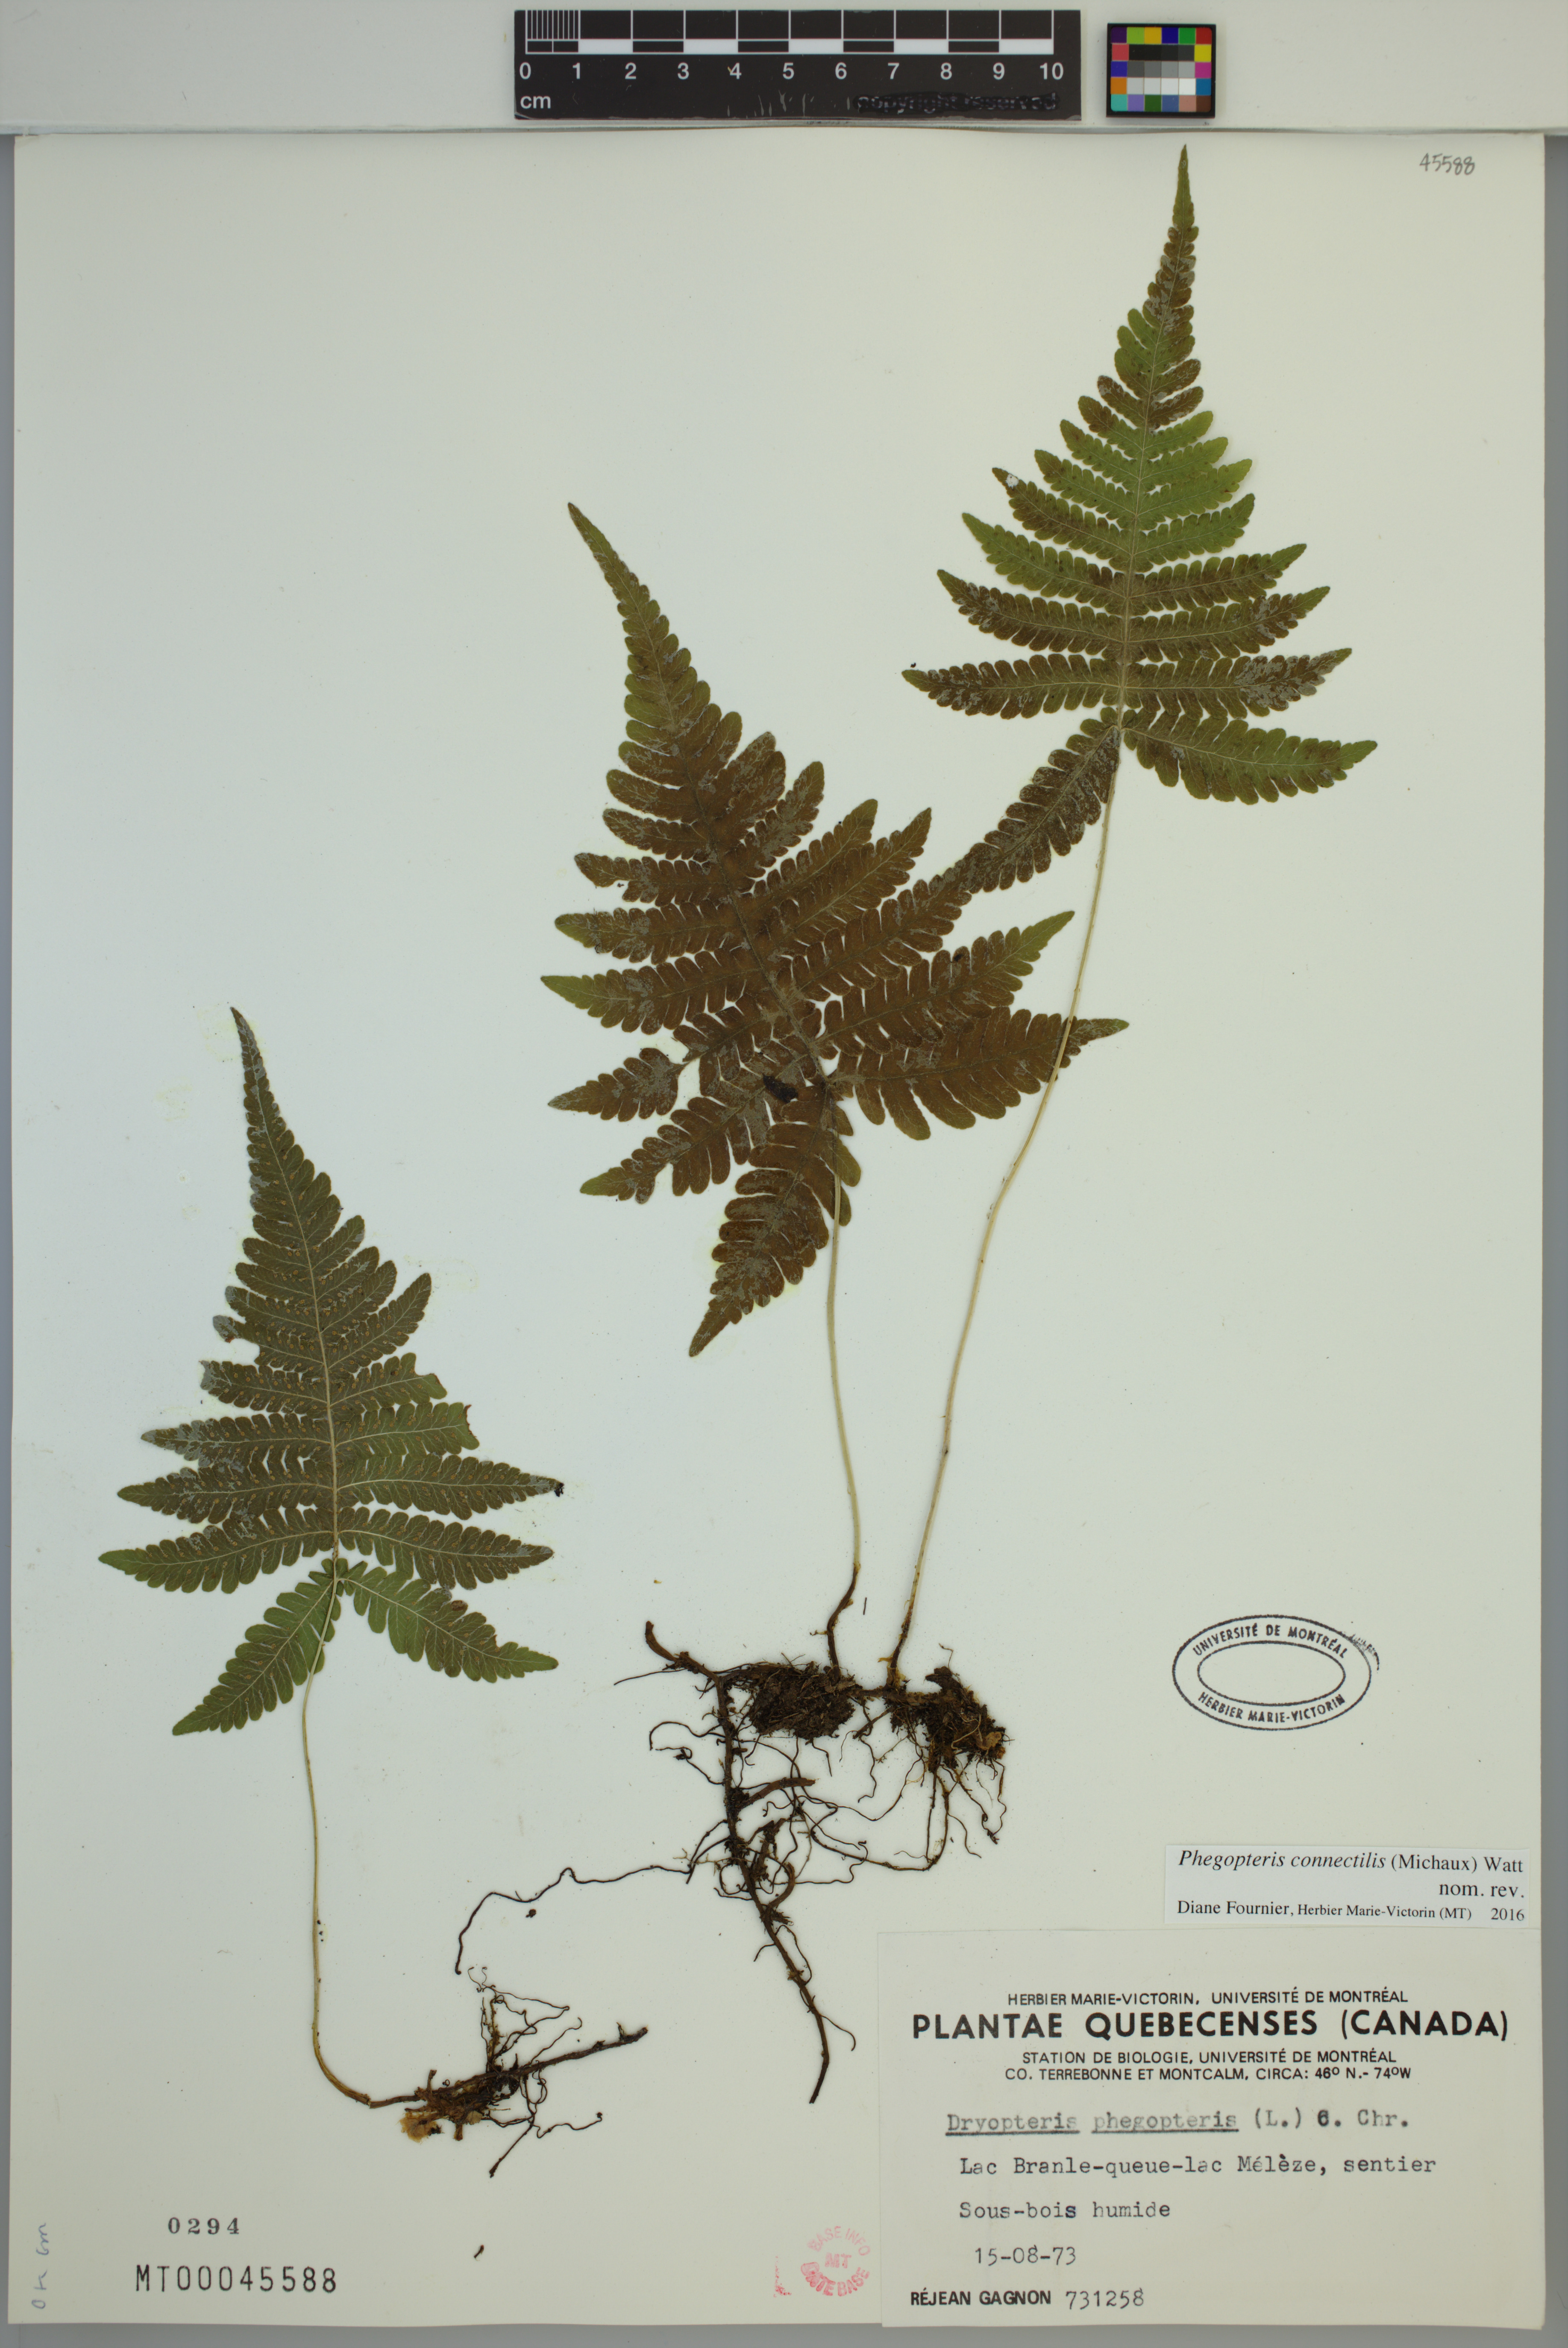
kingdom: Plantae
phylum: Tracheophyta
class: Polypodiopsida
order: Polypodiales
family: Thelypteridaceae
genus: Phegopteris
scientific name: Phegopteris connectilis
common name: Beech fern
